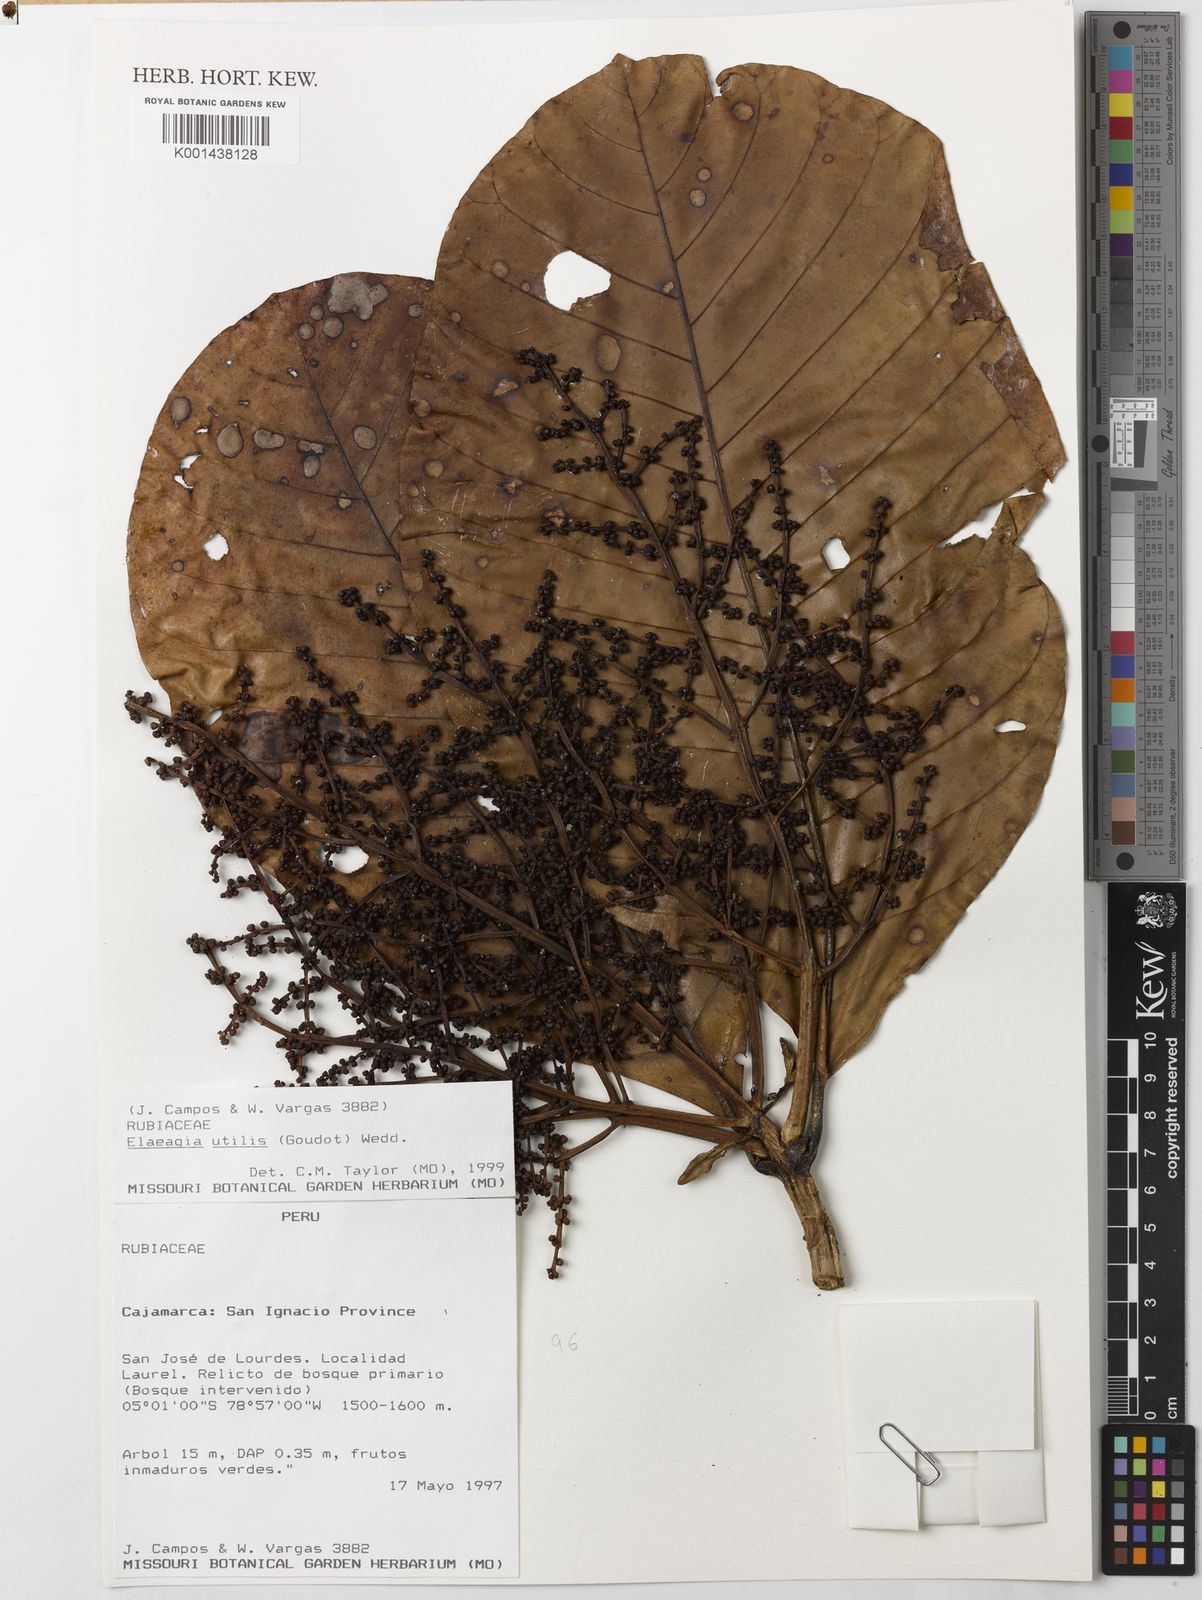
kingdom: Plantae
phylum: Tracheophyta
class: Magnoliopsida
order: Gentianales
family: Rubiaceae
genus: Elaeagia
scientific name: Elaeagia utilis
